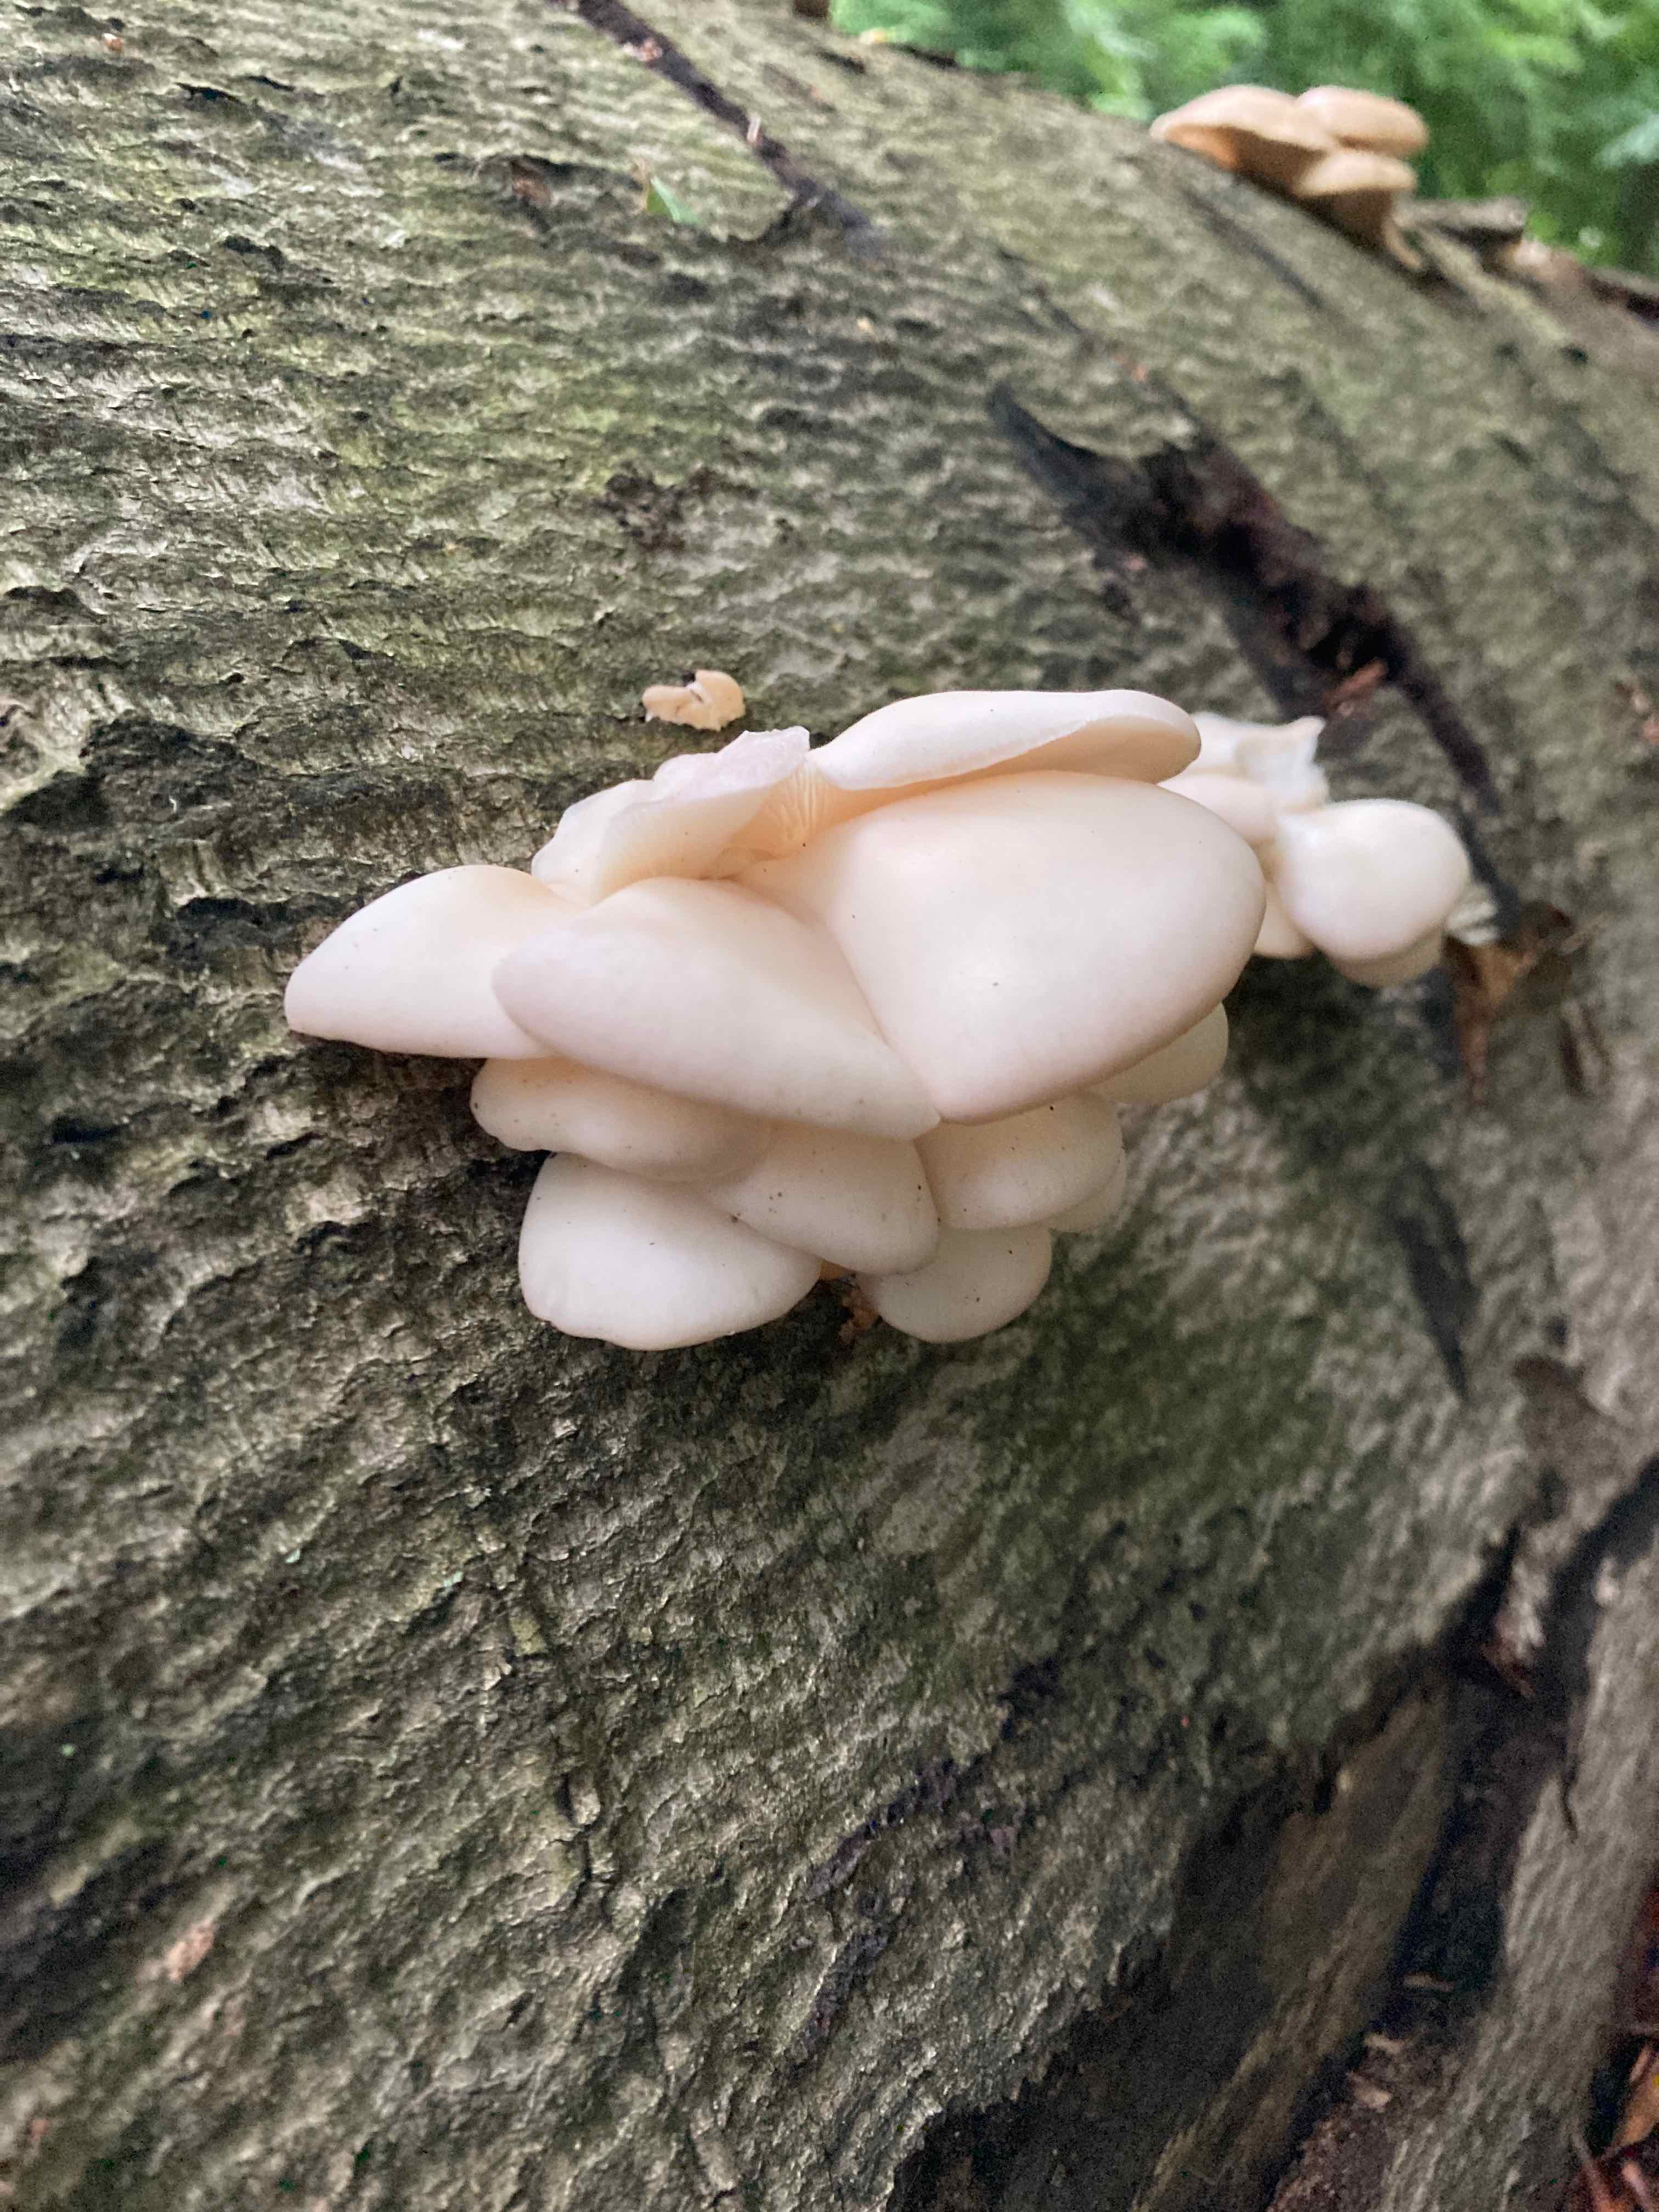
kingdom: Fungi
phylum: Basidiomycota
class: Agaricomycetes
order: Agaricales
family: Pleurotaceae
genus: Pleurotus
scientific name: Pleurotus pulmonarius
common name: sommer-østershat
